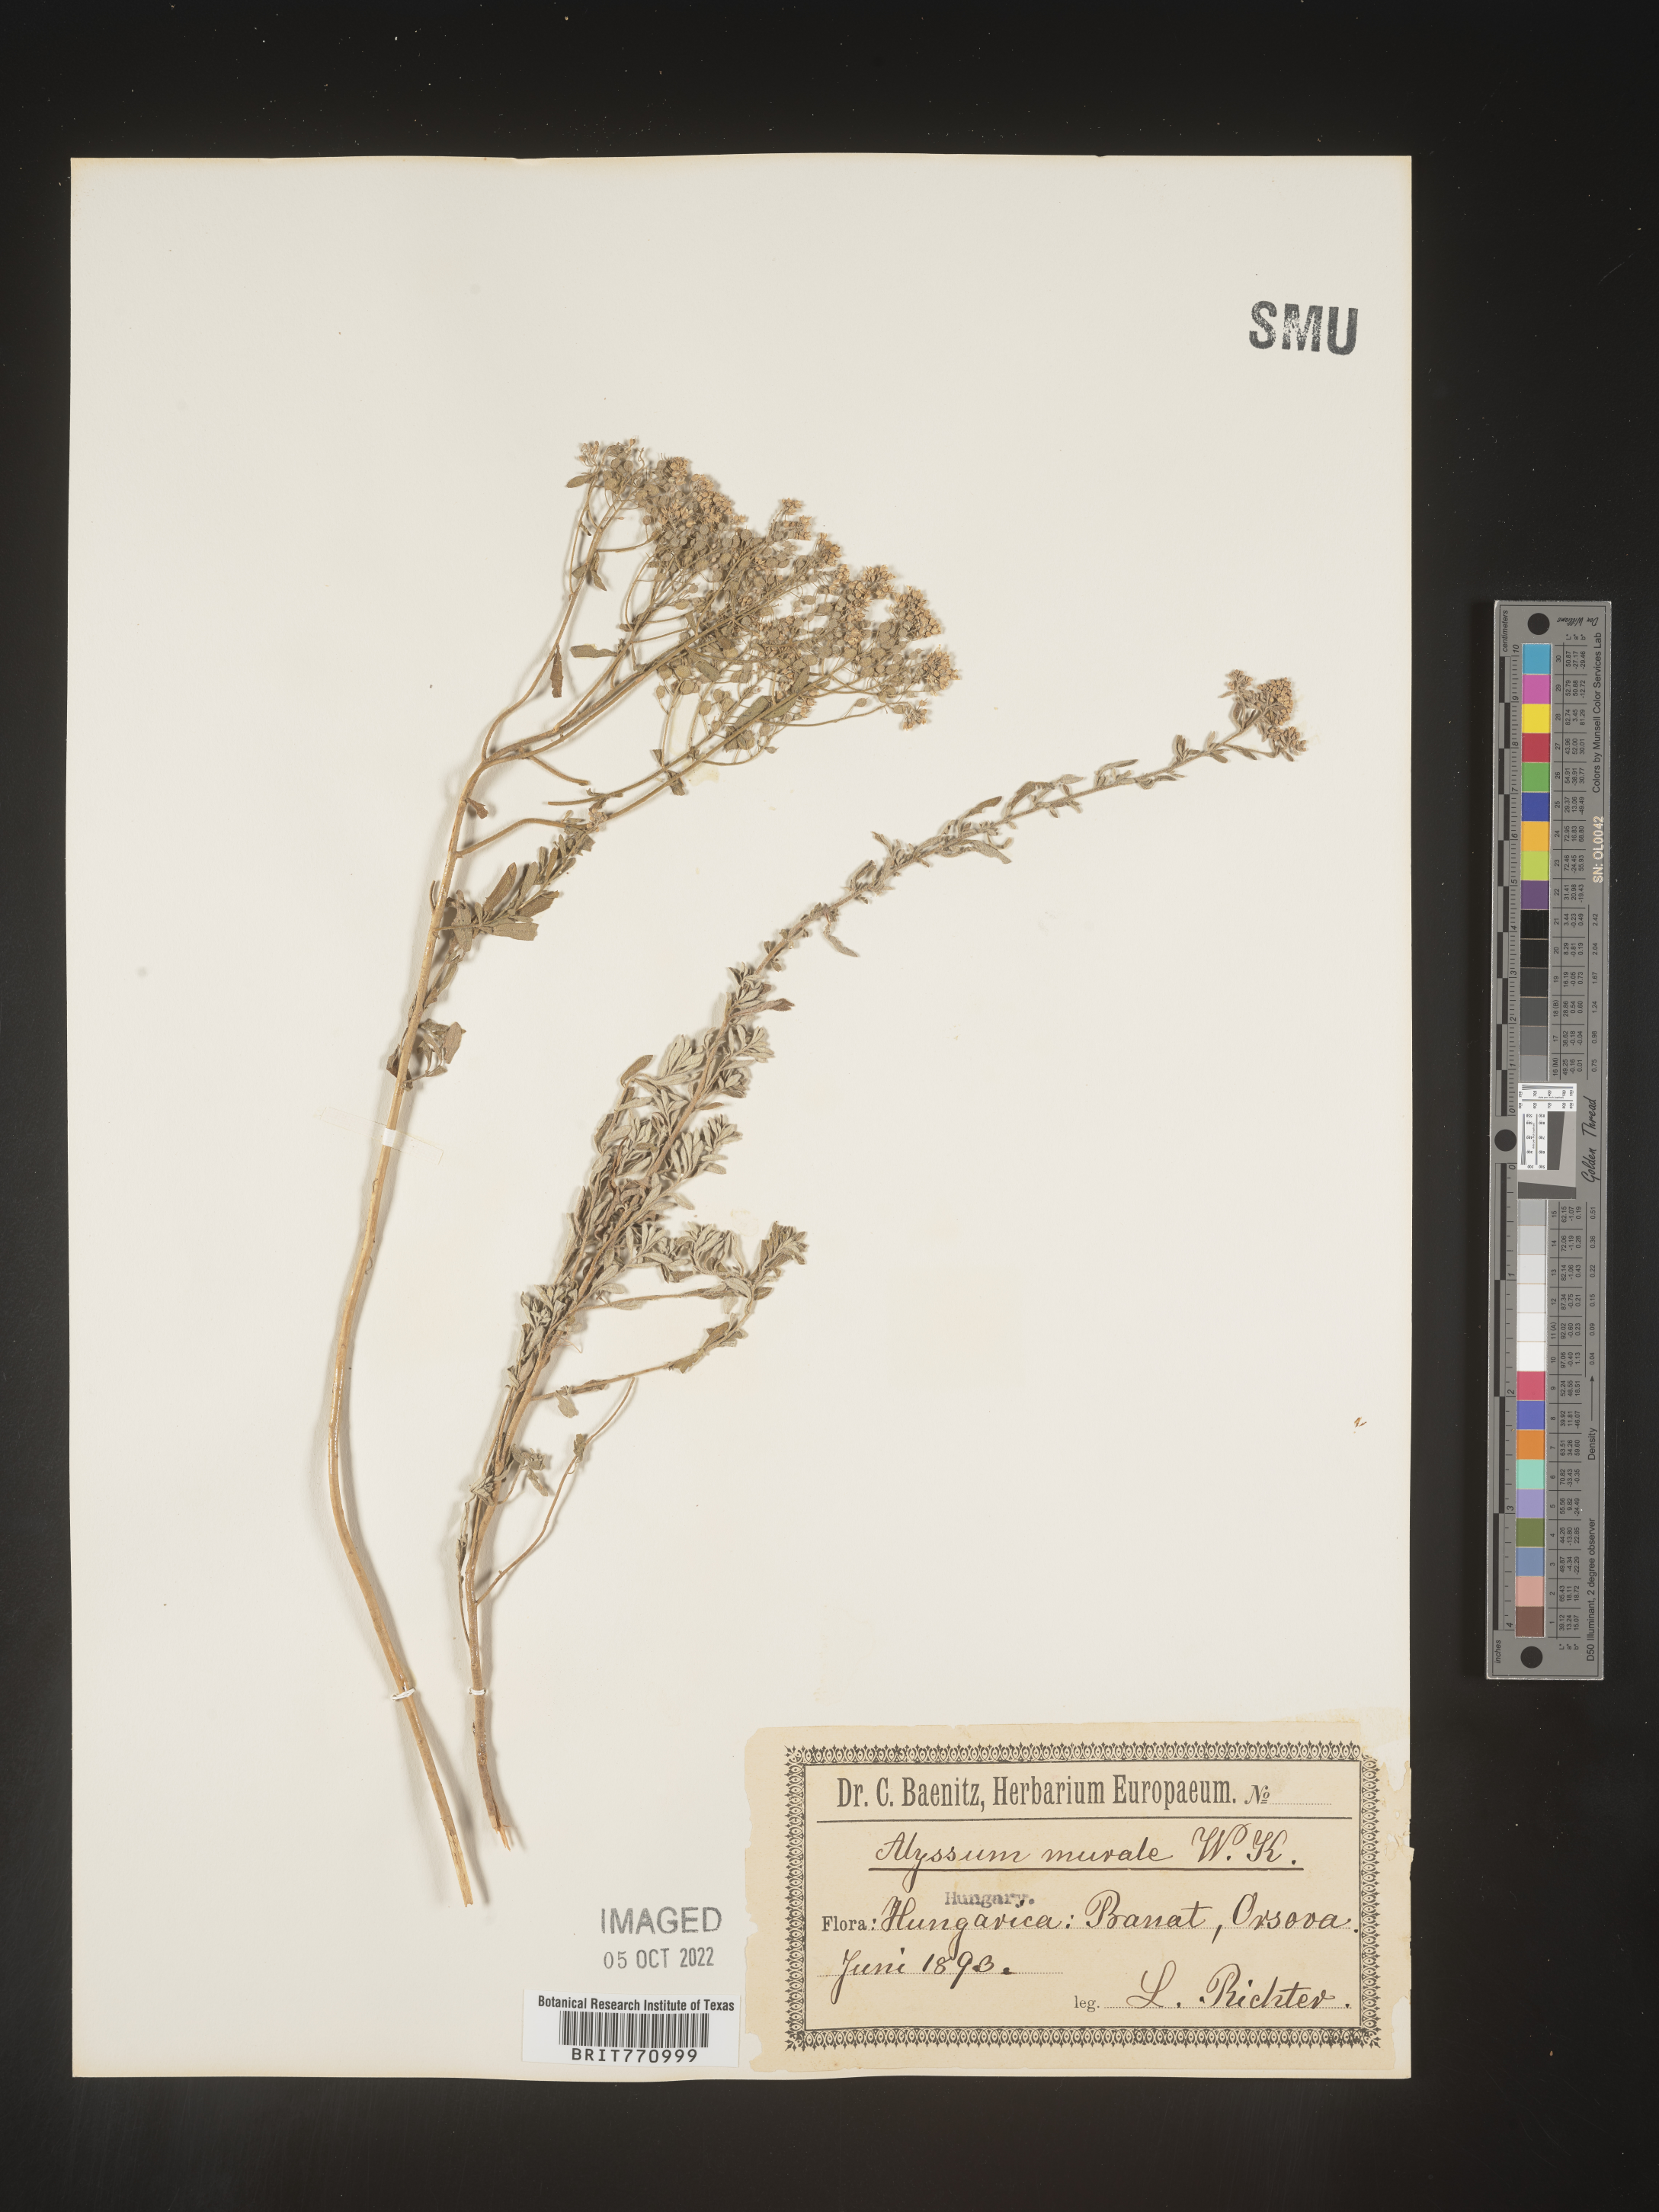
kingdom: Plantae
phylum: Tracheophyta
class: Magnoliopsida
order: Brassicales
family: Brassicaceae
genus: Alyssum
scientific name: Alyssum
